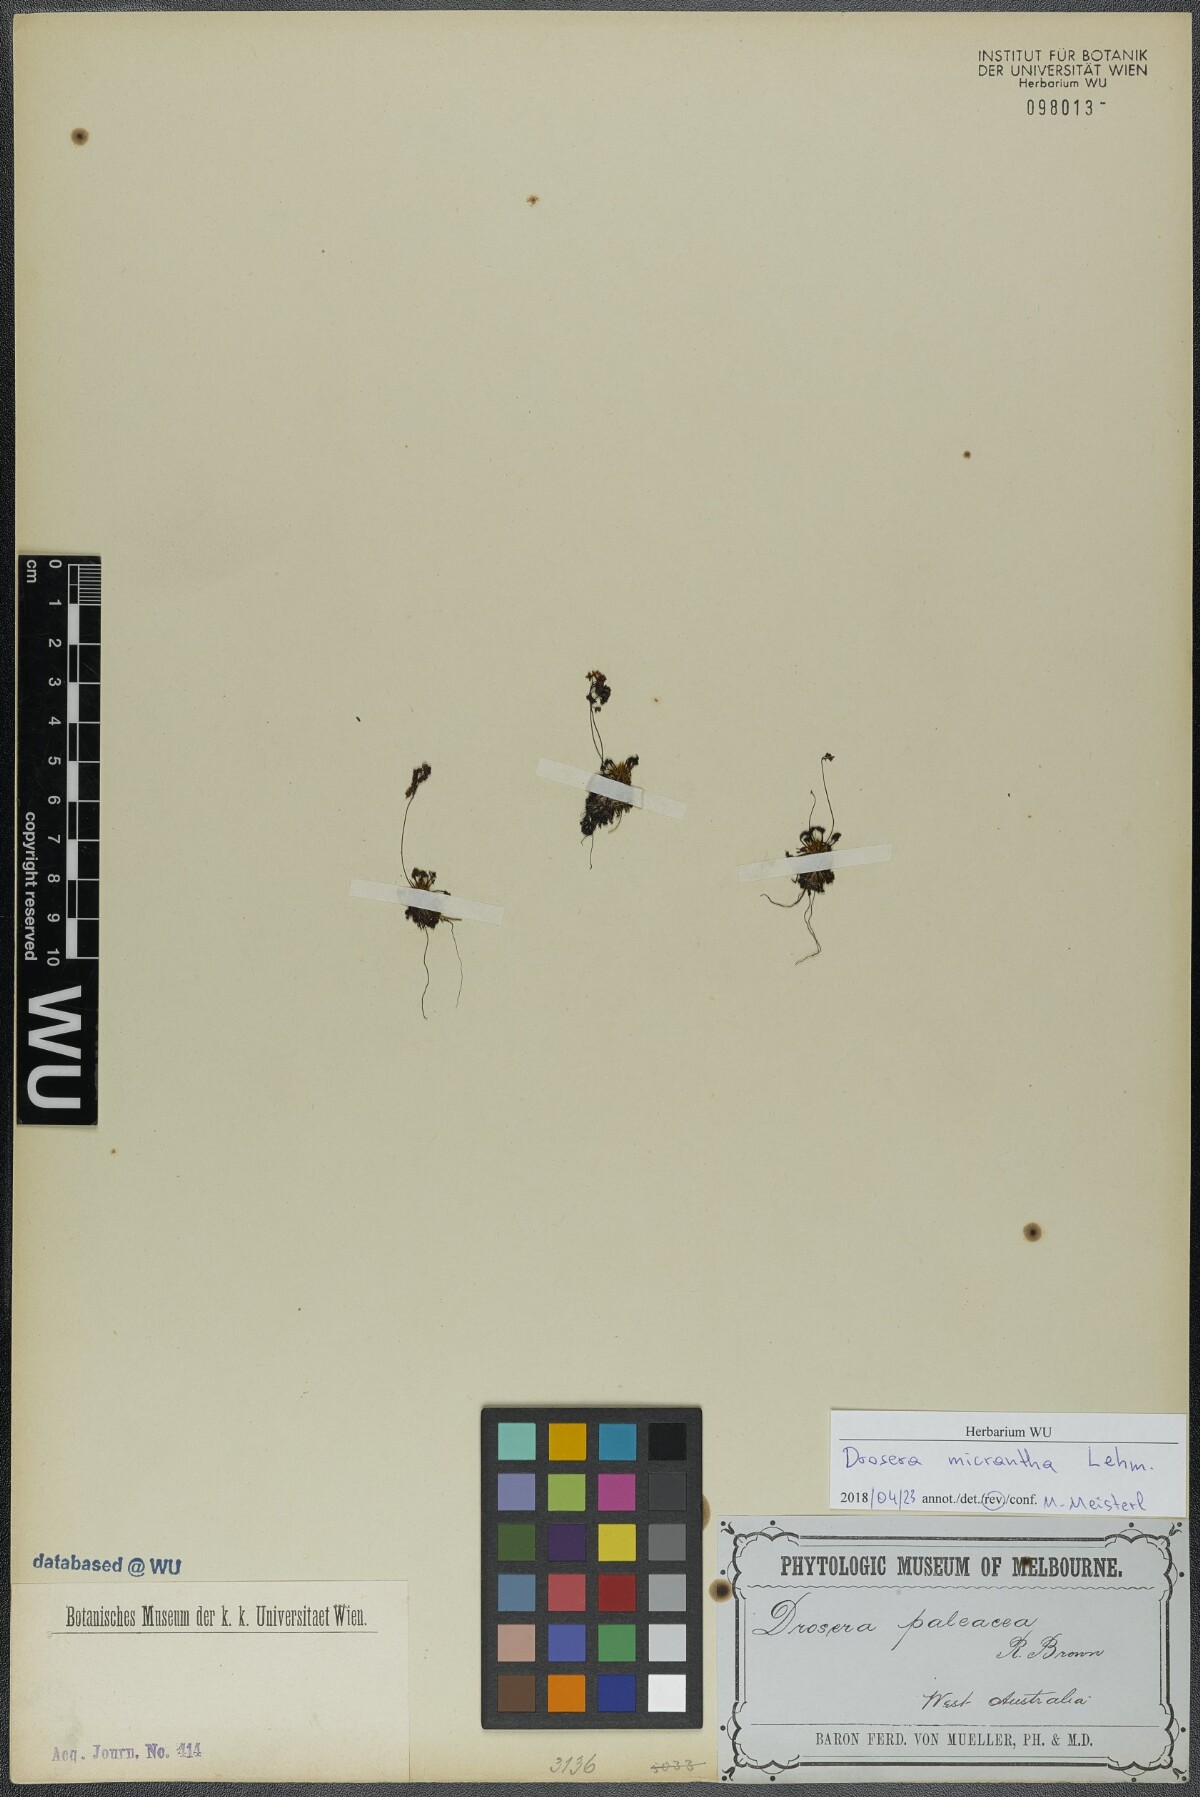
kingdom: Plantae
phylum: Tracheophyta
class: Magnoliopsida
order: Caryophyllales
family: Droseraceae
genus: Drosera
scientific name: Drosera paleacea
